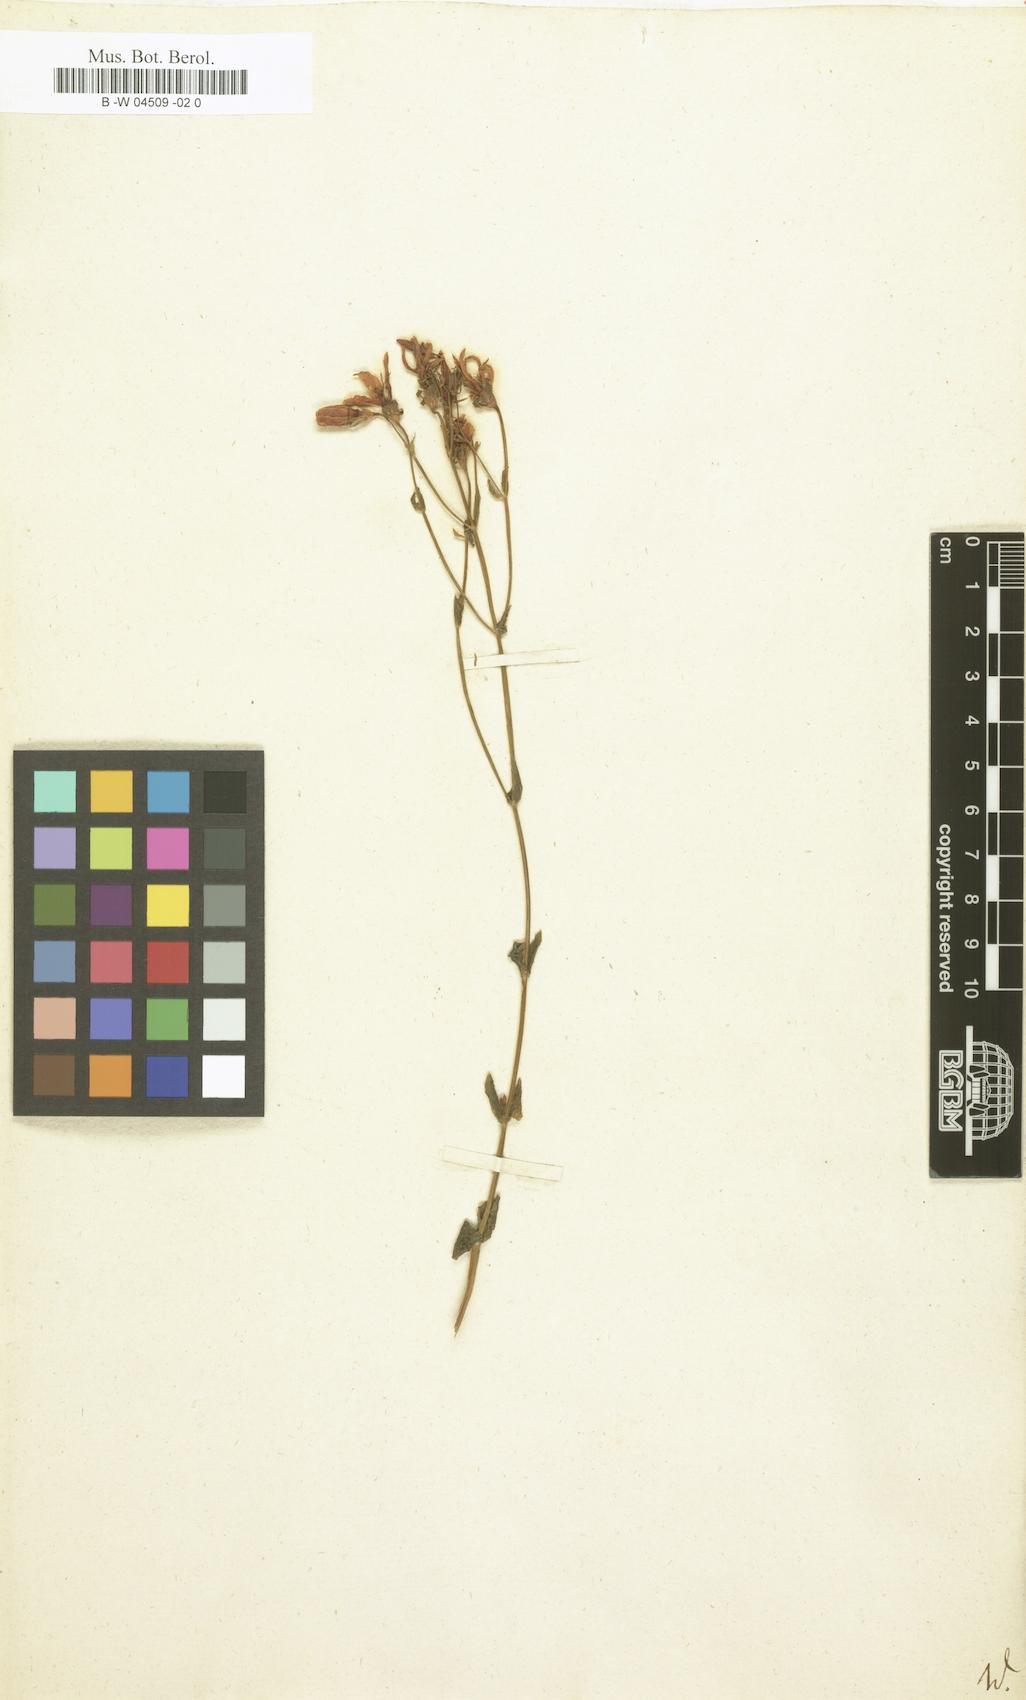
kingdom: Plantae
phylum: Tracheophyta
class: Magnoliopsida
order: Gentianales
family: Gentianaceae
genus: Chironia
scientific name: Chironia
